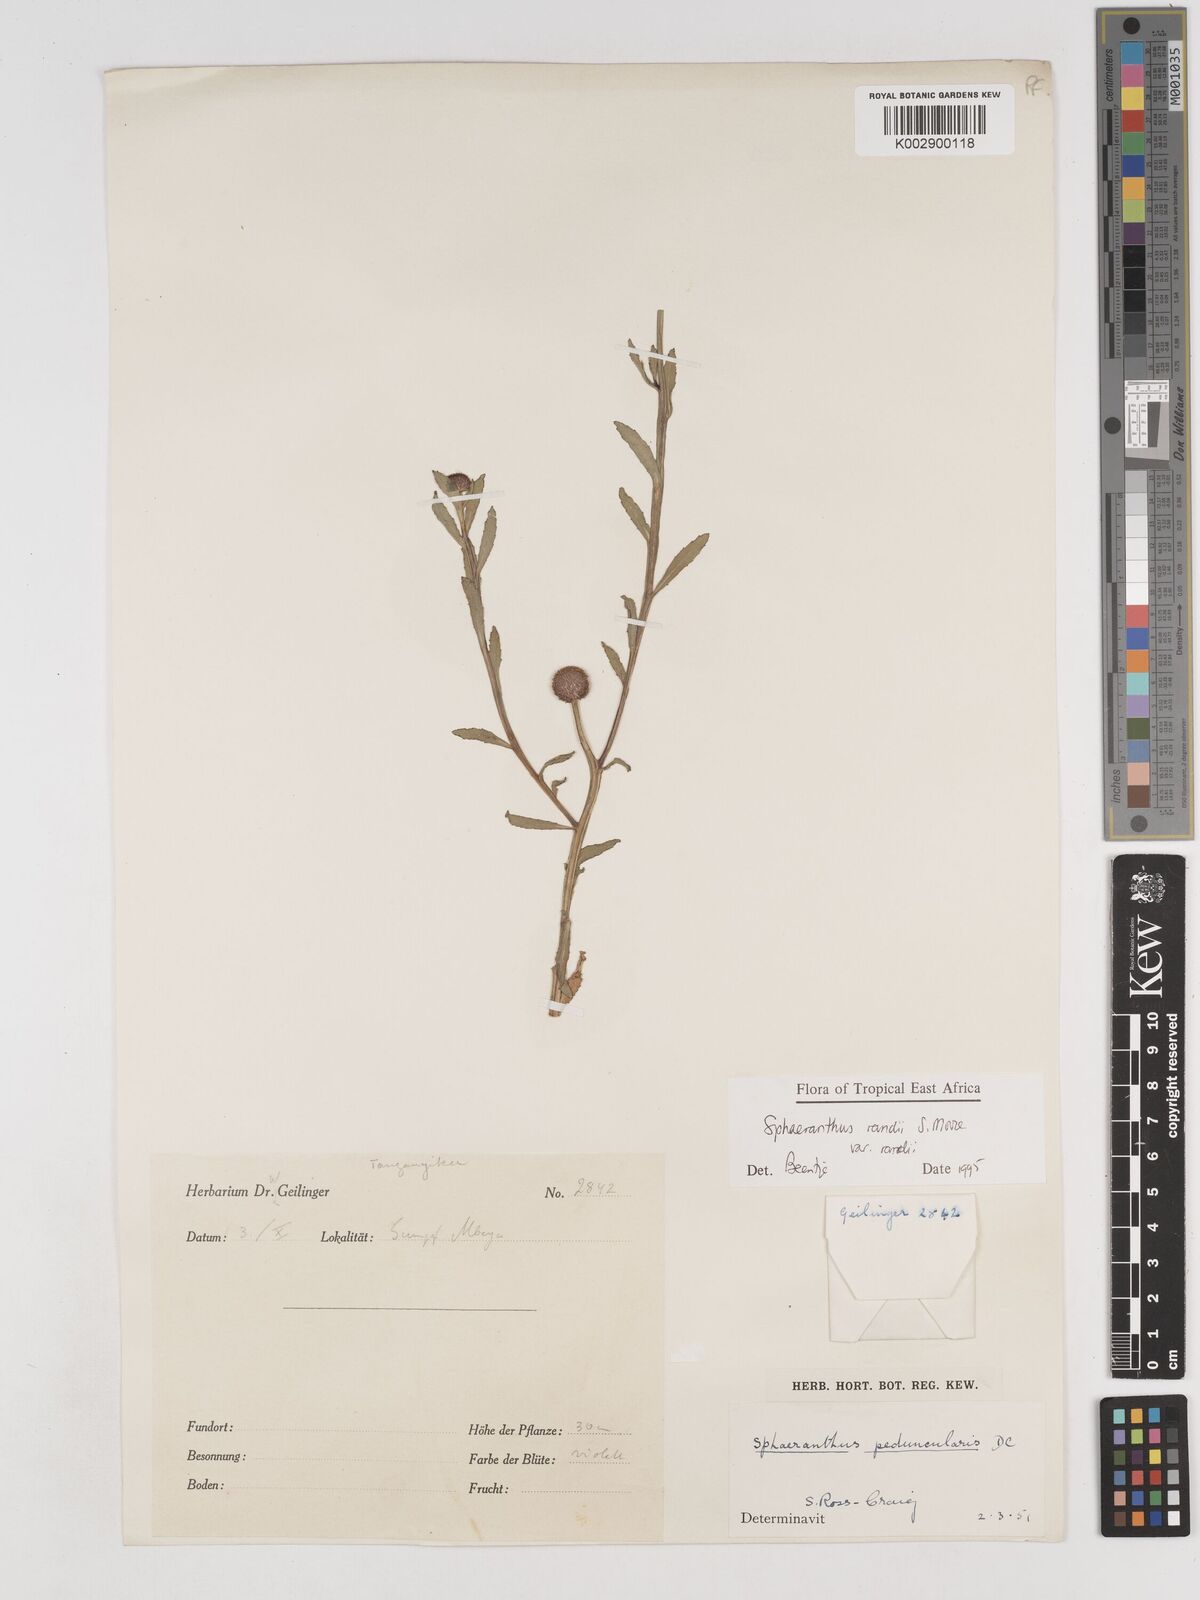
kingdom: Plantae
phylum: Tracheophyta
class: Magnoliopsida
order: Asterales
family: Asteraceae
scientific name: Asteraceae
